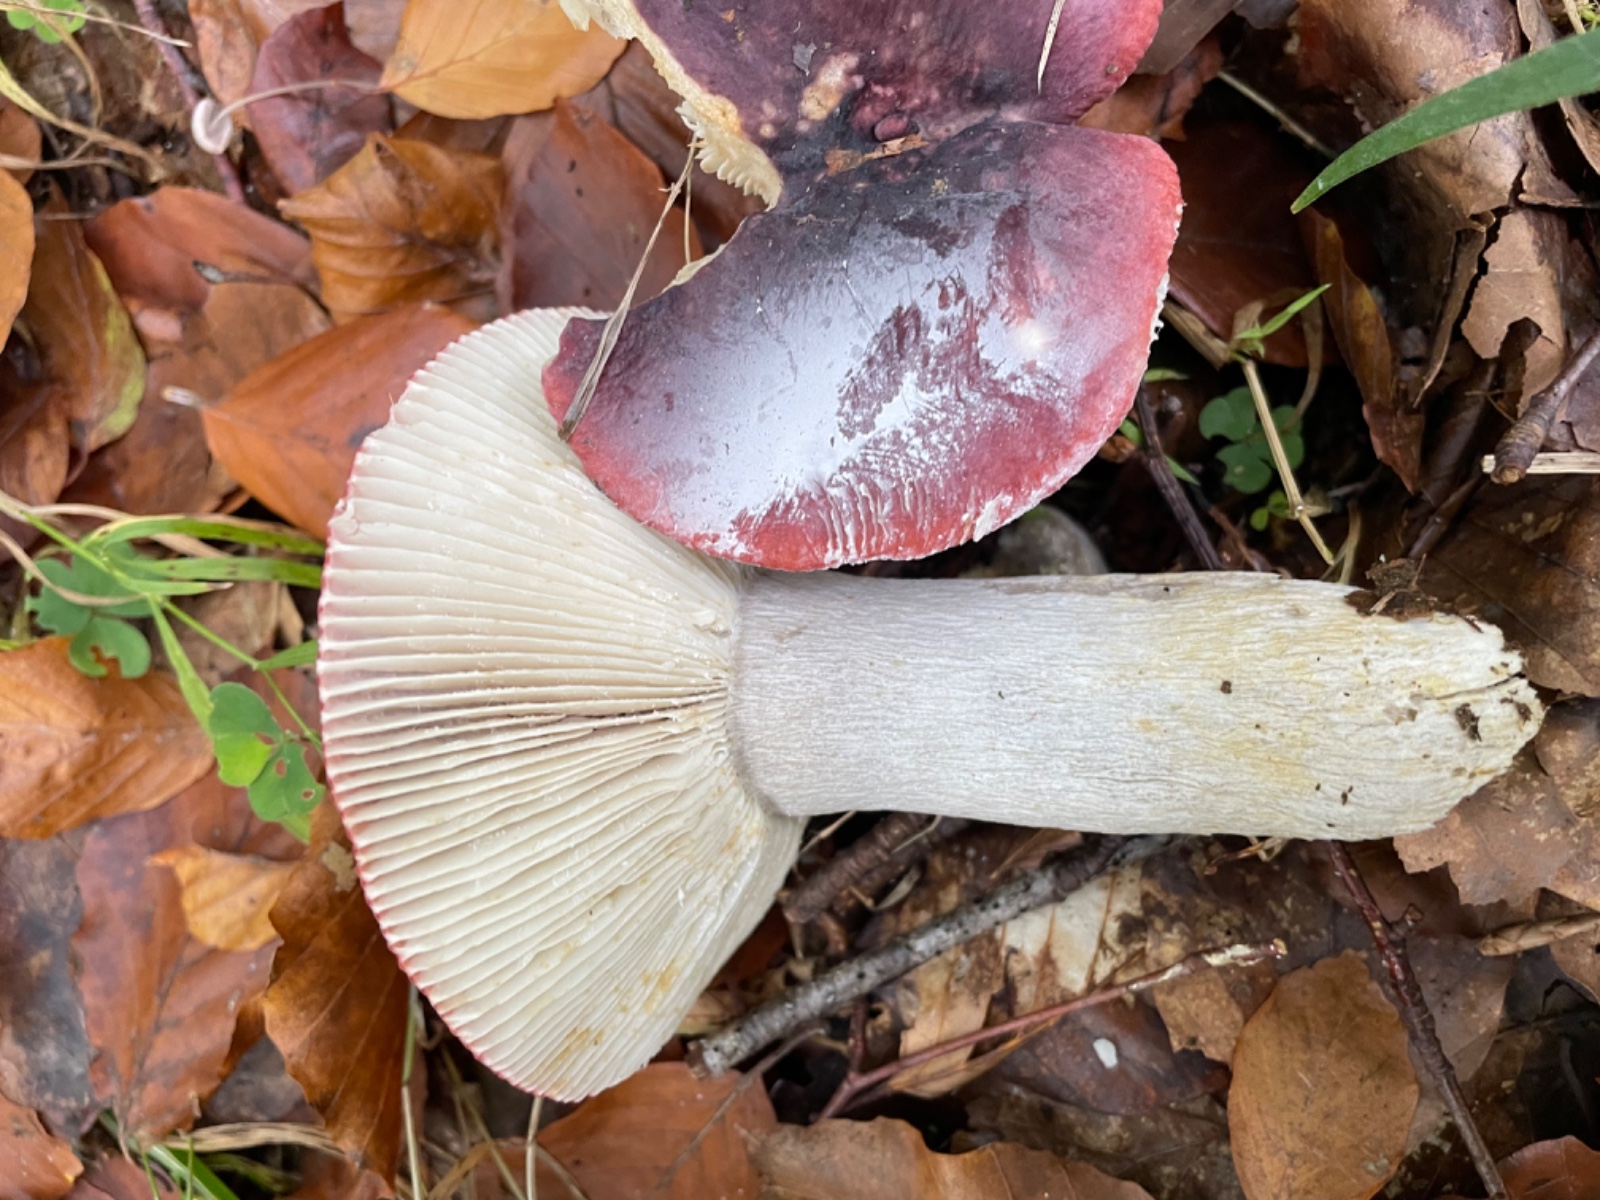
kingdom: Fungi
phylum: Basidiomycota
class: Agaricomycetes
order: Russulales
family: Russulaceae
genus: Russula
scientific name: Russula atropurpurea
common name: purpurbroget skørhat
